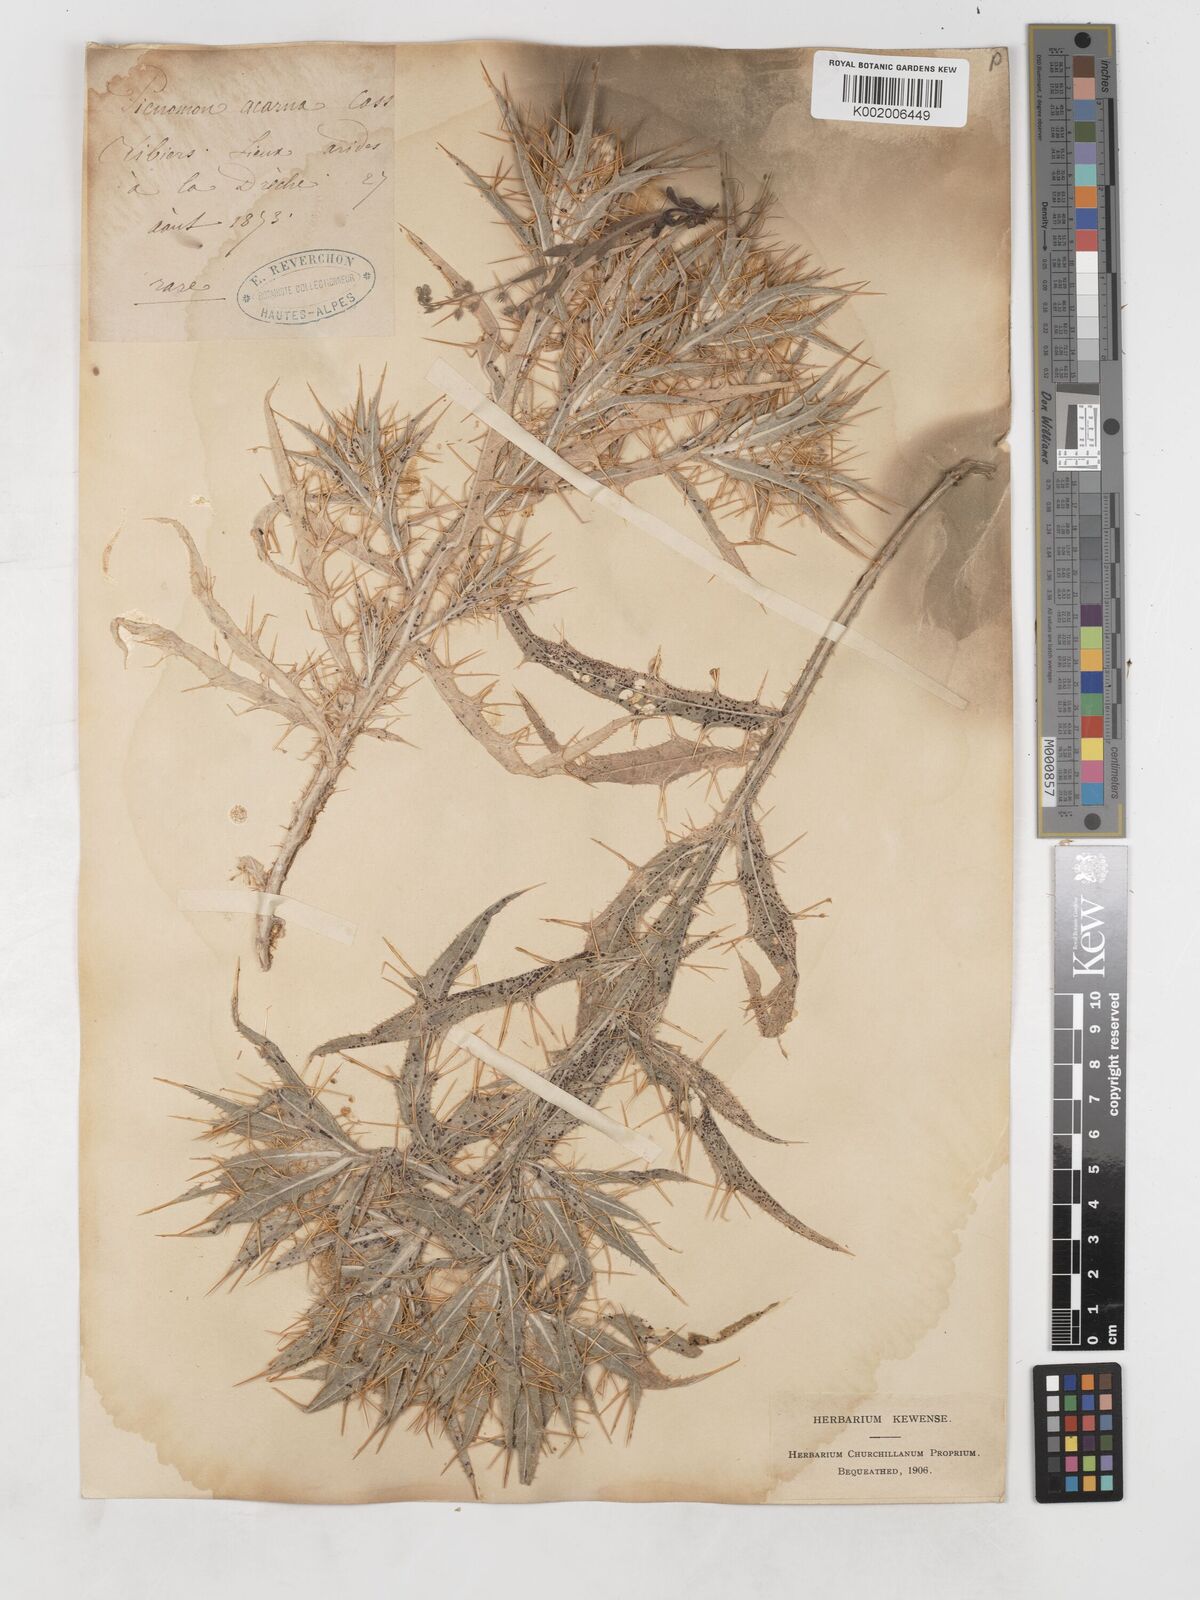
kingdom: Plantae
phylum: Tracheophyta
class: Magnoliopsida
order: Asterales
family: Asteraceae
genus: Picnomon
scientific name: Picnomon acarna
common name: Soldier thistle
